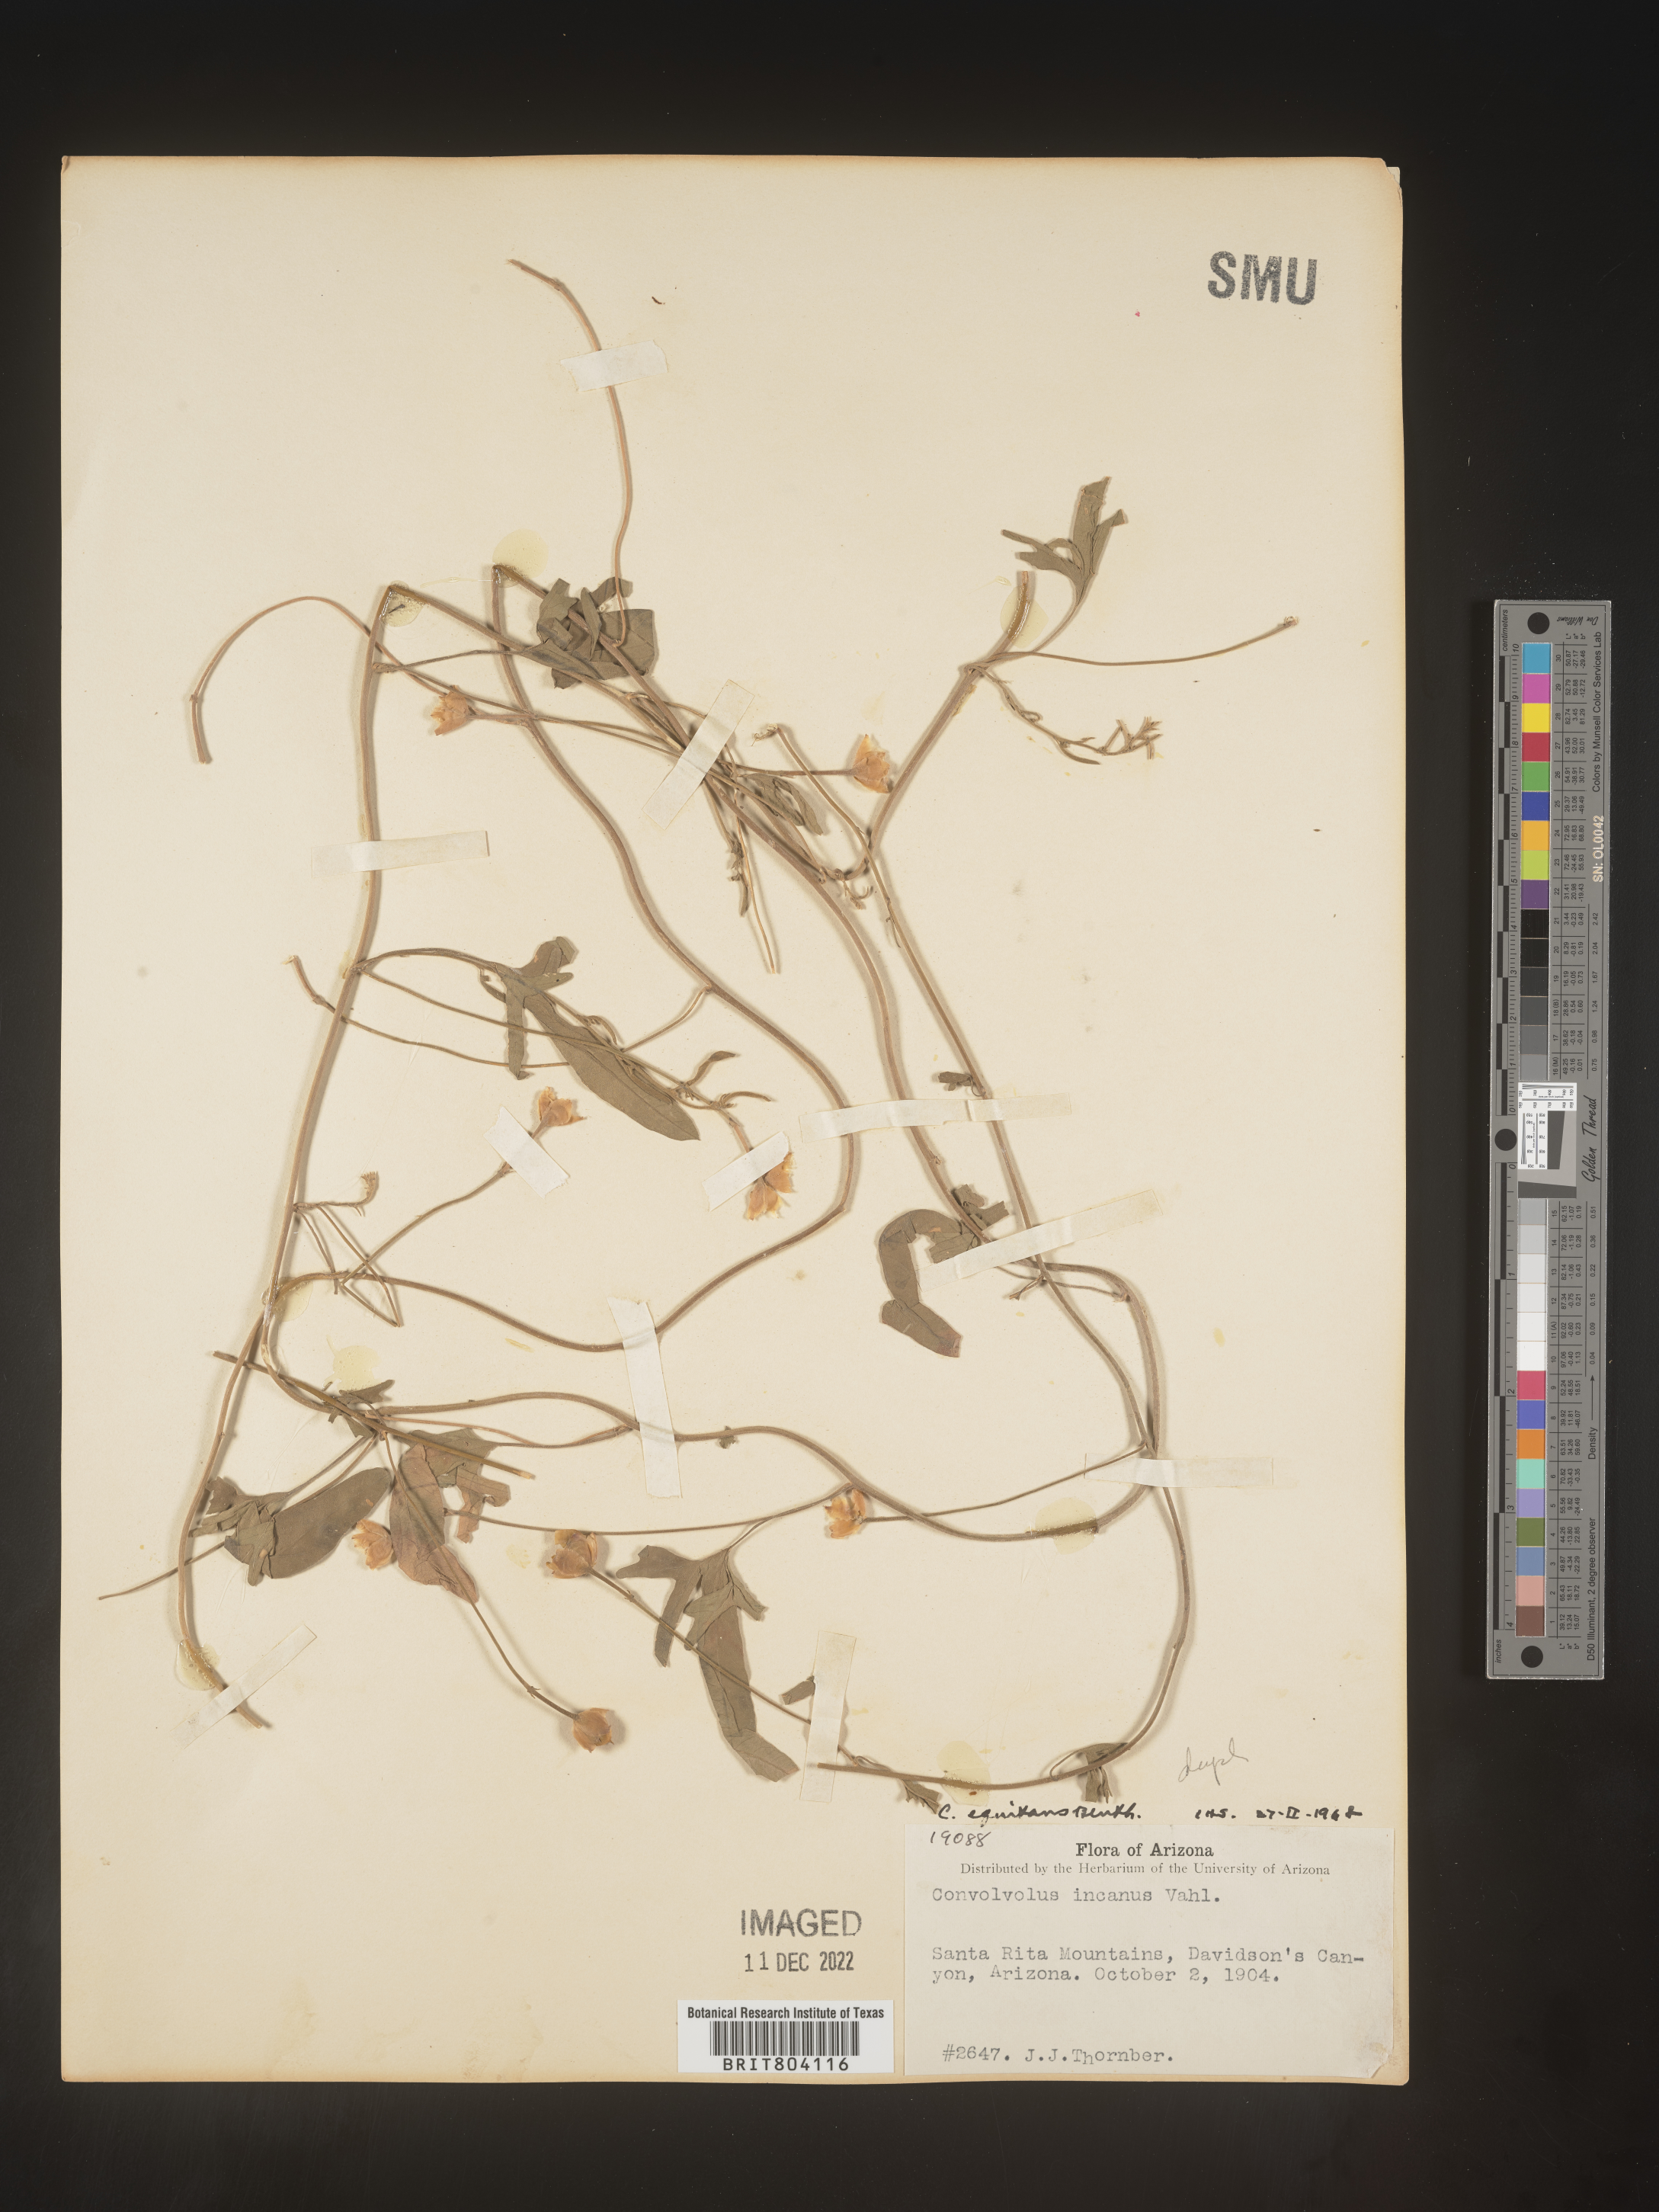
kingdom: Plantae
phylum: Tracheophyta
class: Magnoliopsida
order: Solanales
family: Convolvulaceae
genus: Convolvulus
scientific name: Convolvulus equitans
